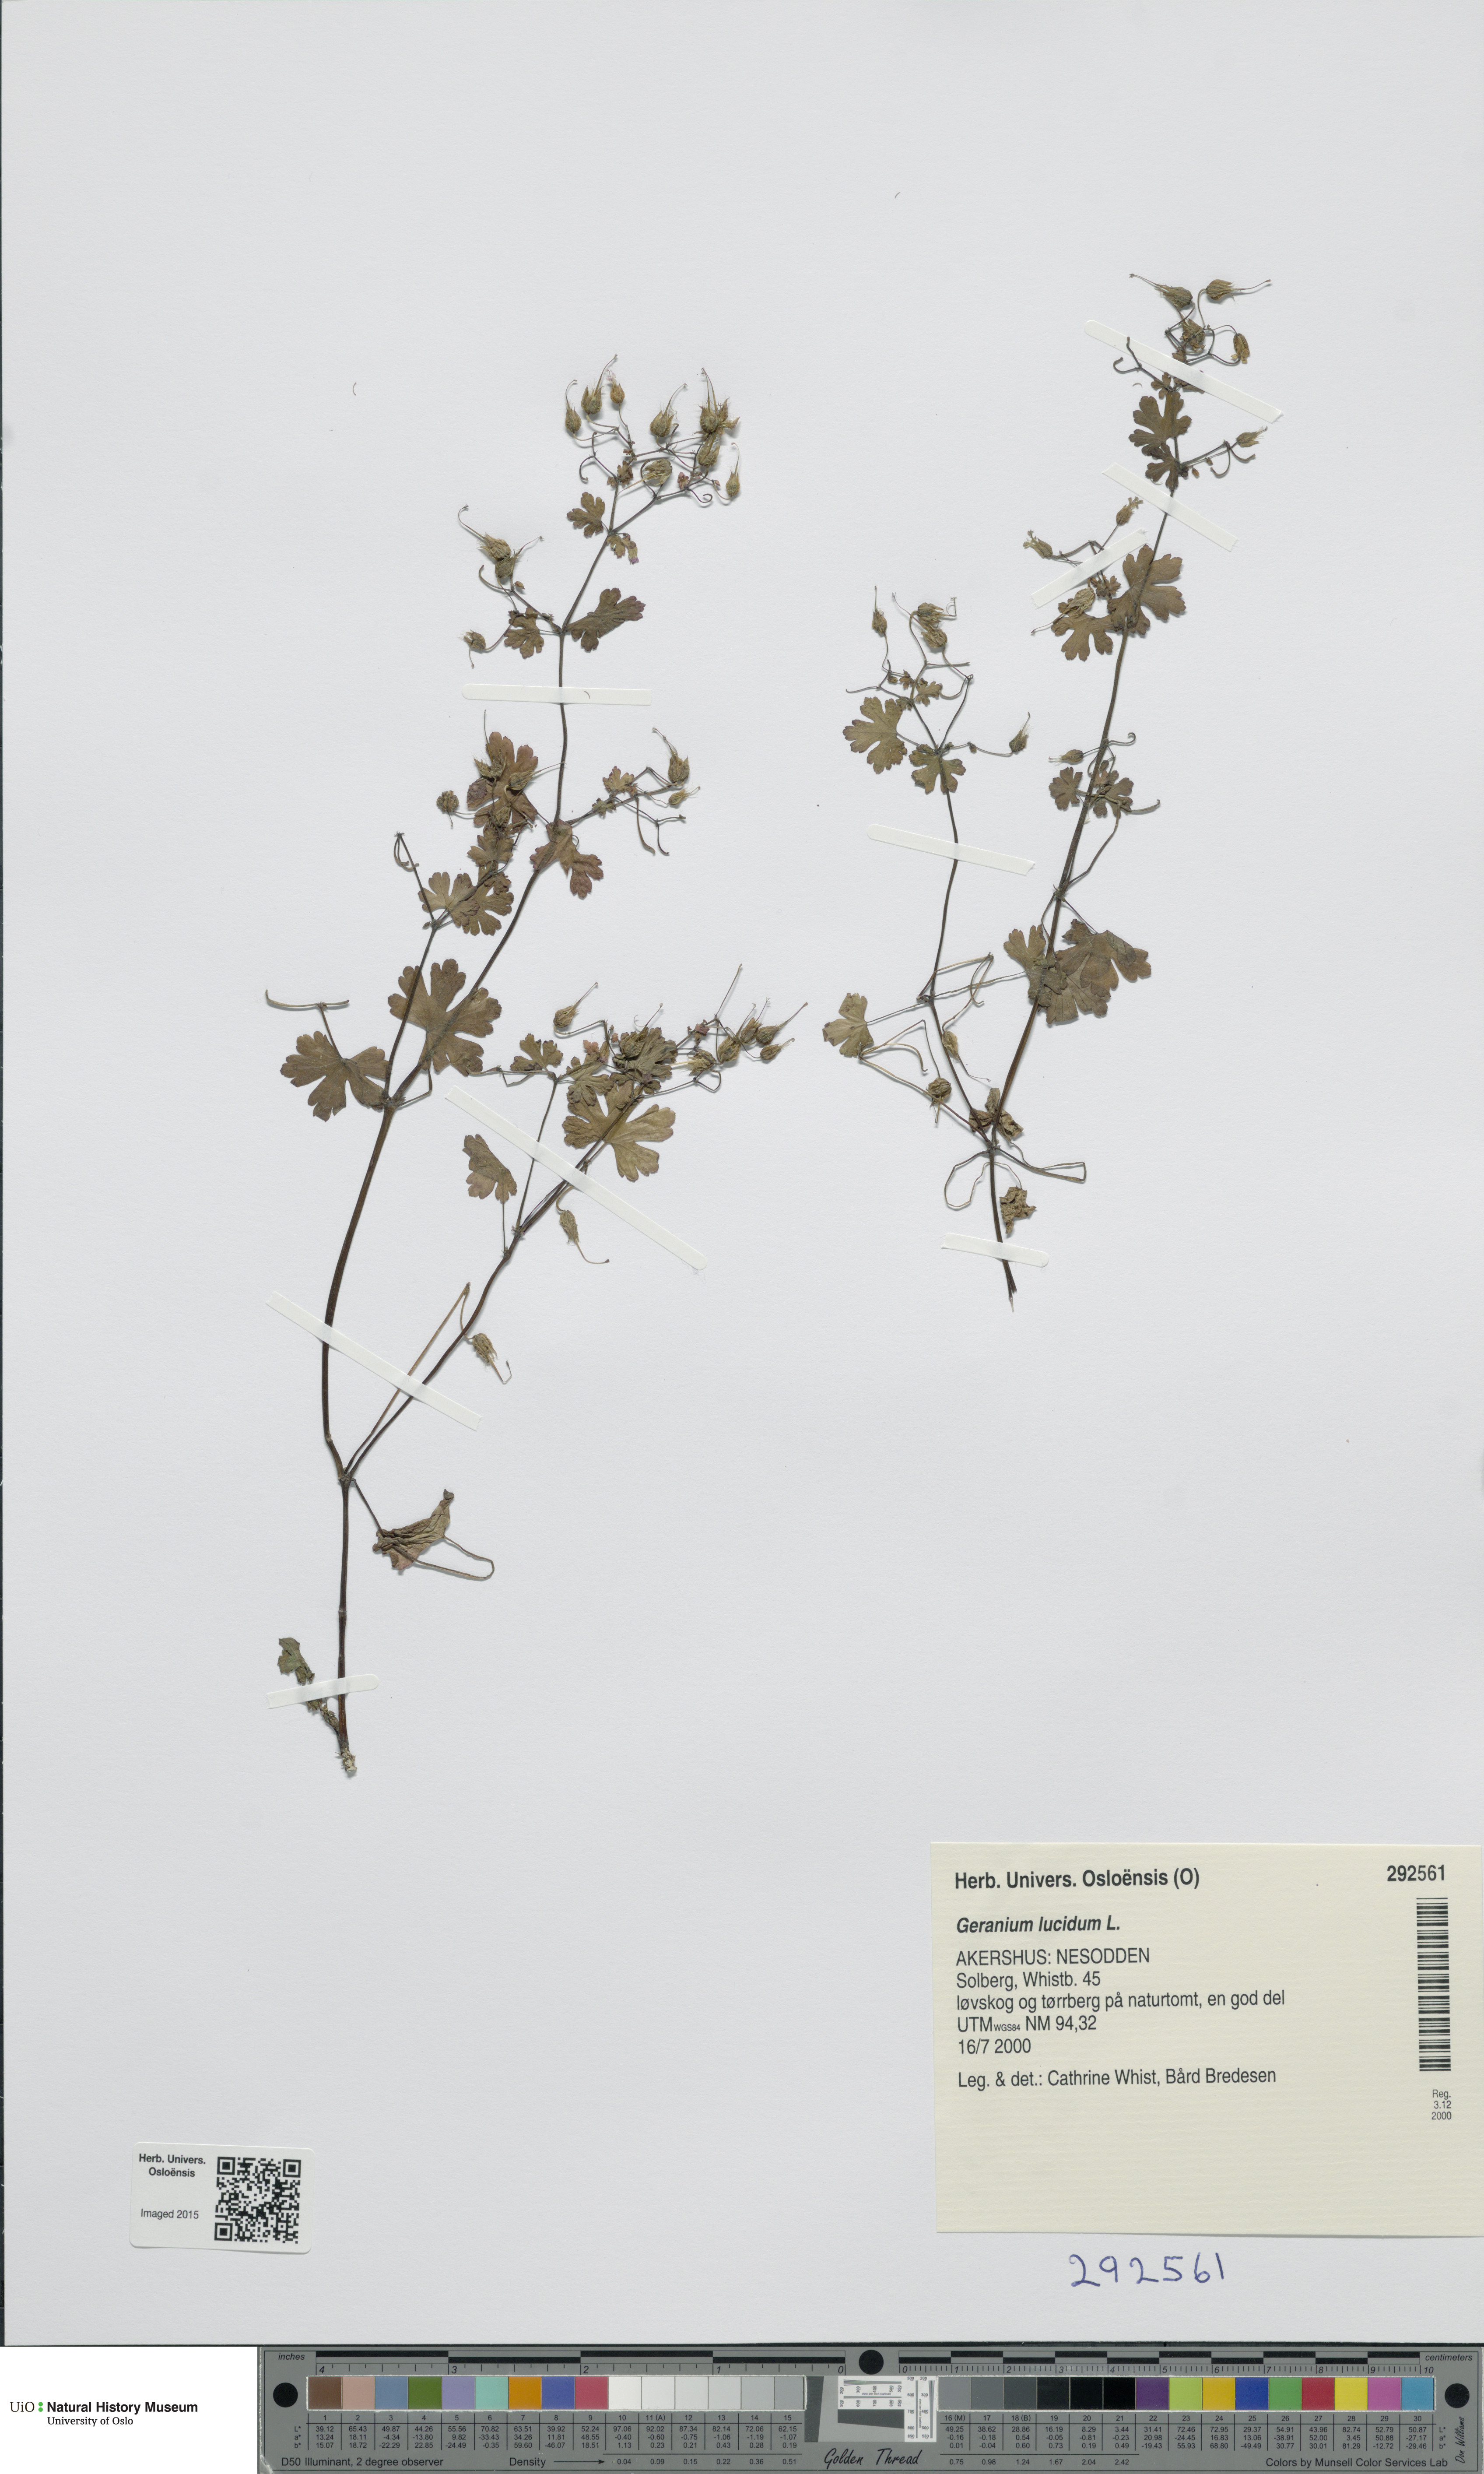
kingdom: Plantae
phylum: Tracheophyta
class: Magnoliopsida
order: Geraniales
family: Geraniaceae
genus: Geranium
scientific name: Geranium lucidum
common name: Shining crane's-bill
